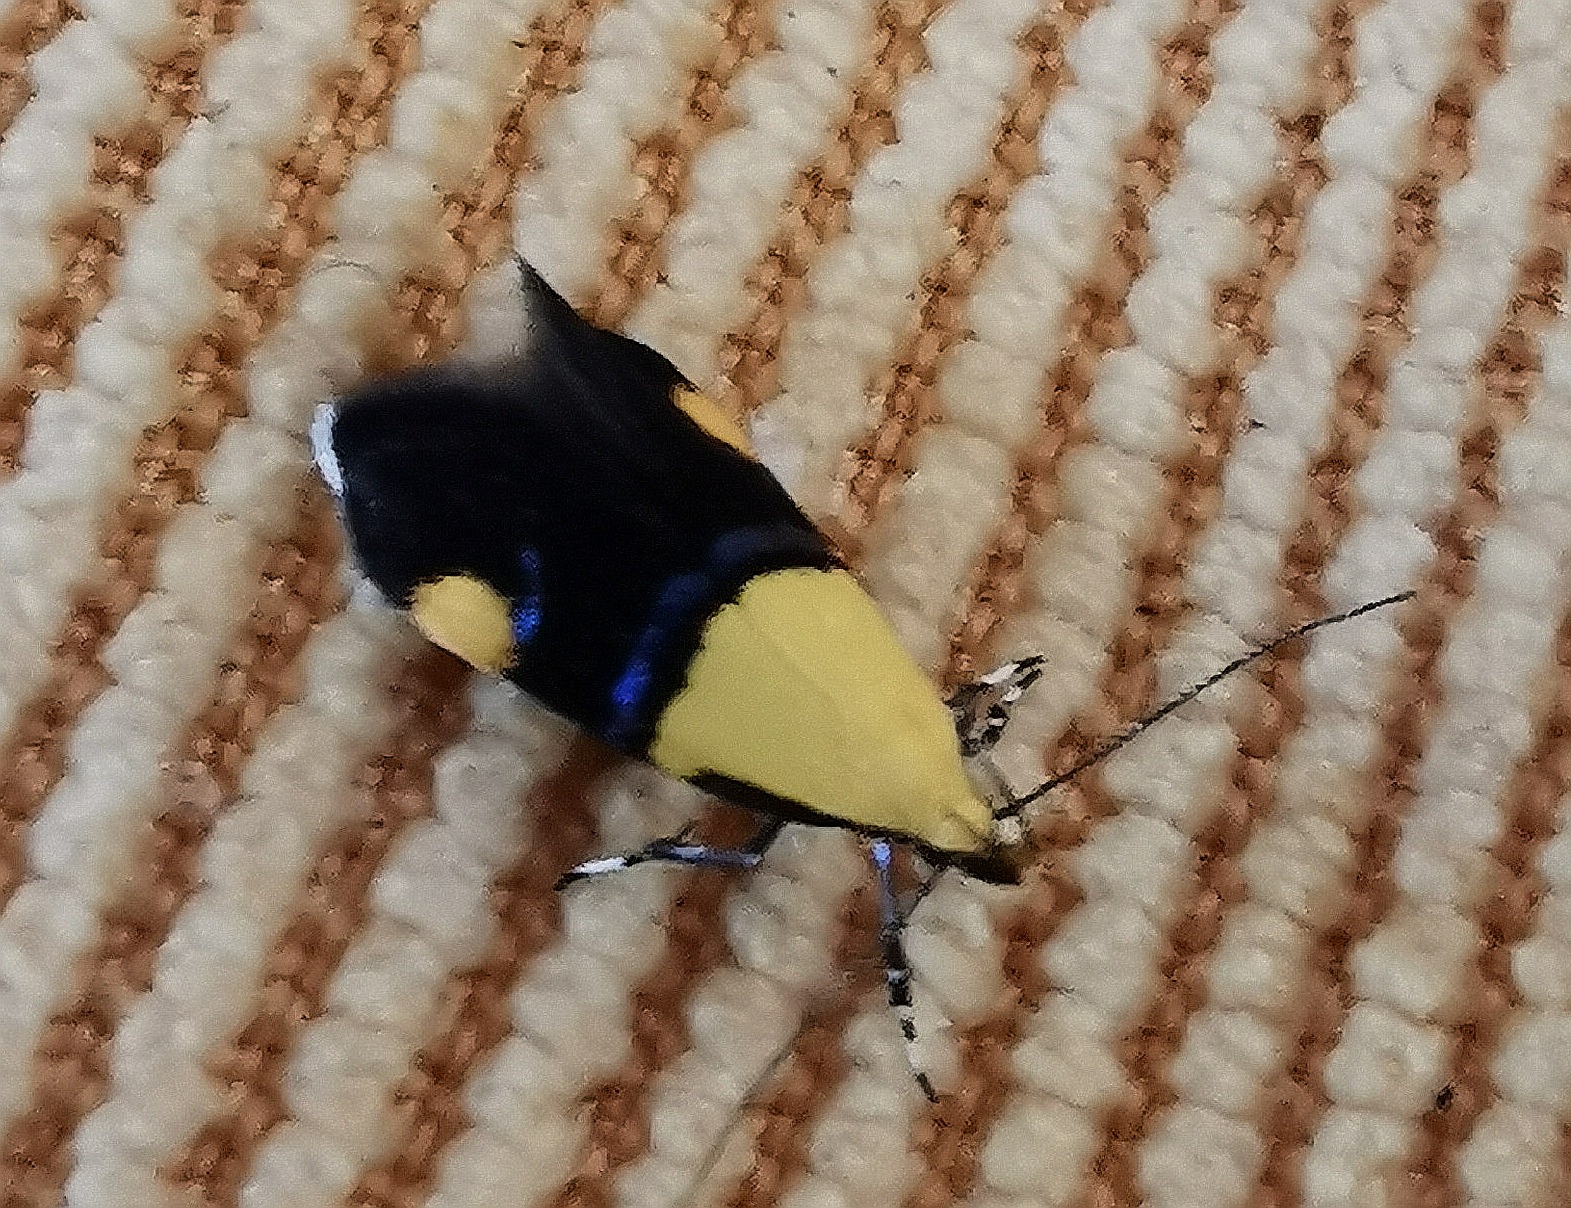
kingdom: Animalia
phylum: Arthropoda
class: Insecta
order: Lepidoptera
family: Oecophoridae
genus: Oecophora
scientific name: Oecophora bractella
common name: Tofarvet prydvinge
